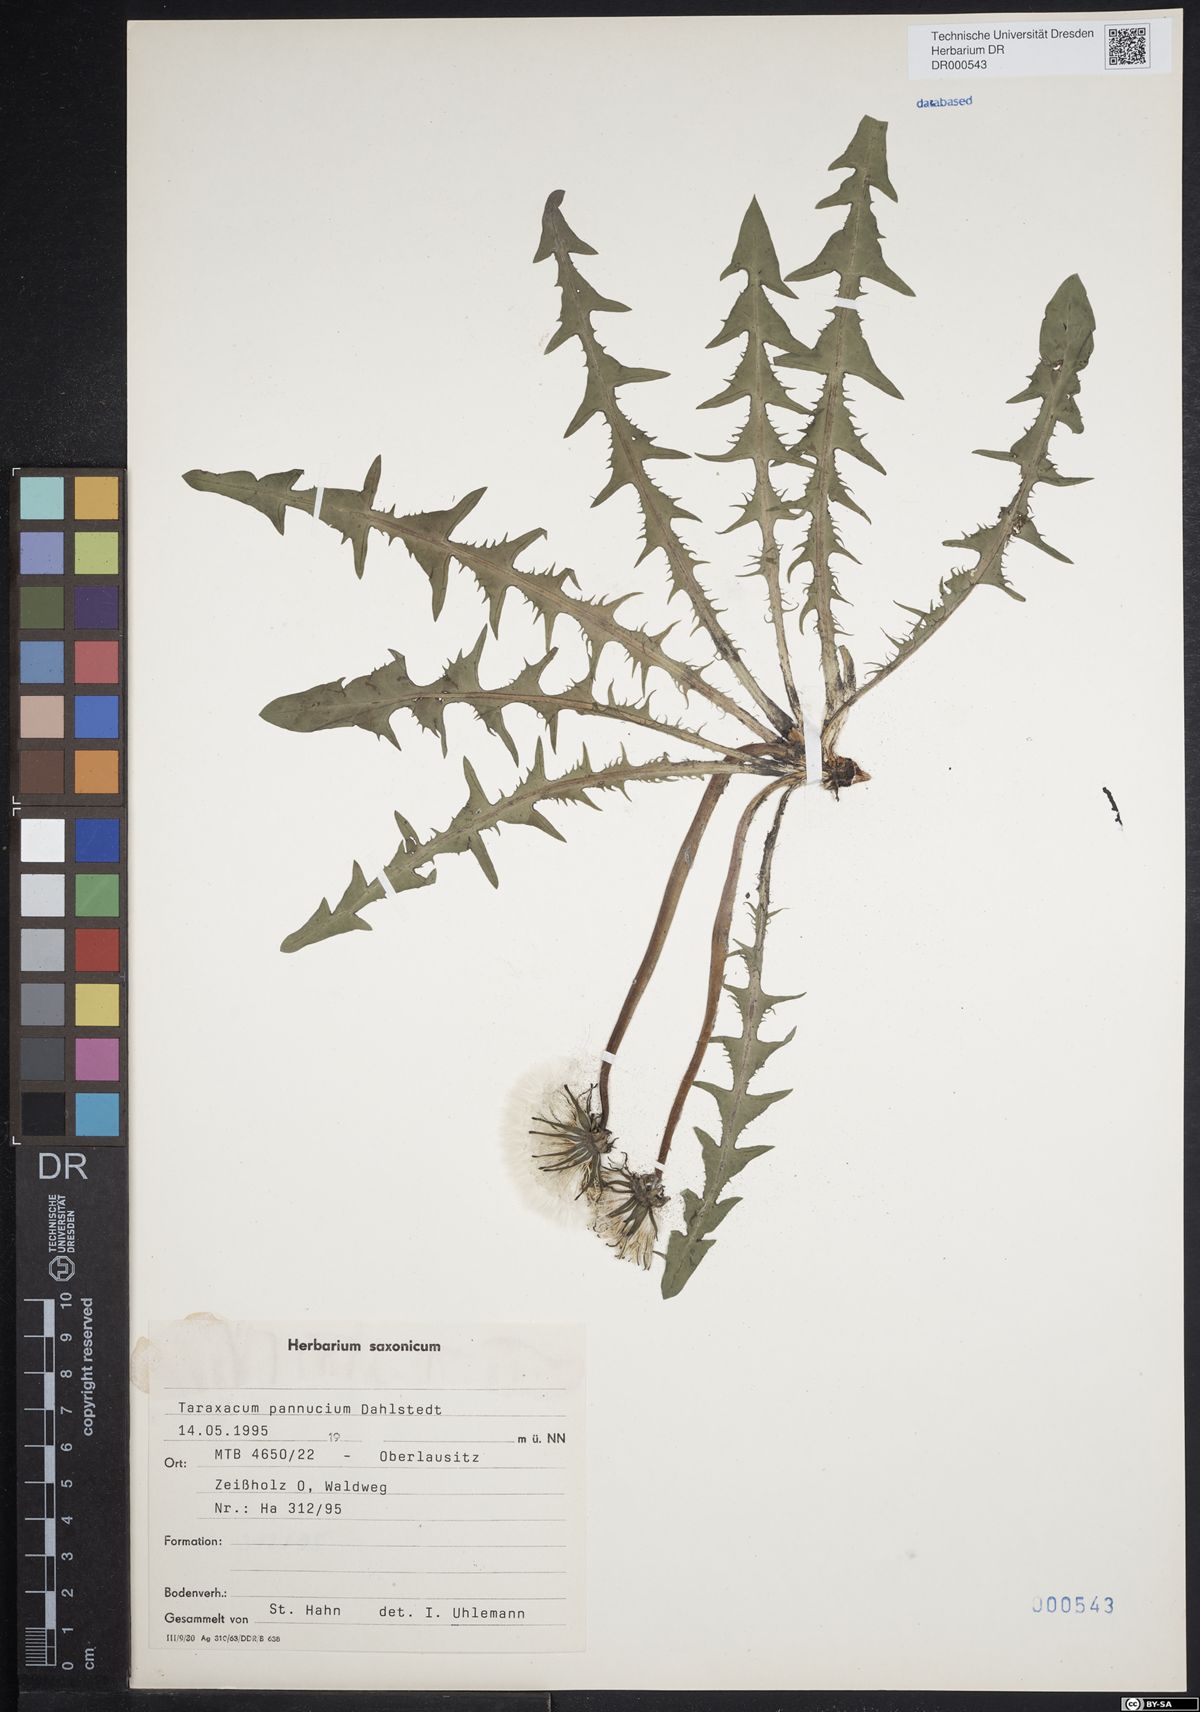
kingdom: Plantae
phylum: Tracheophyta
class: Magnoliopsida
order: Asterales
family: Asteraceae
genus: Taraxacum
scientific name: Taraxacum pannucium
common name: Green-stalked dandelion
